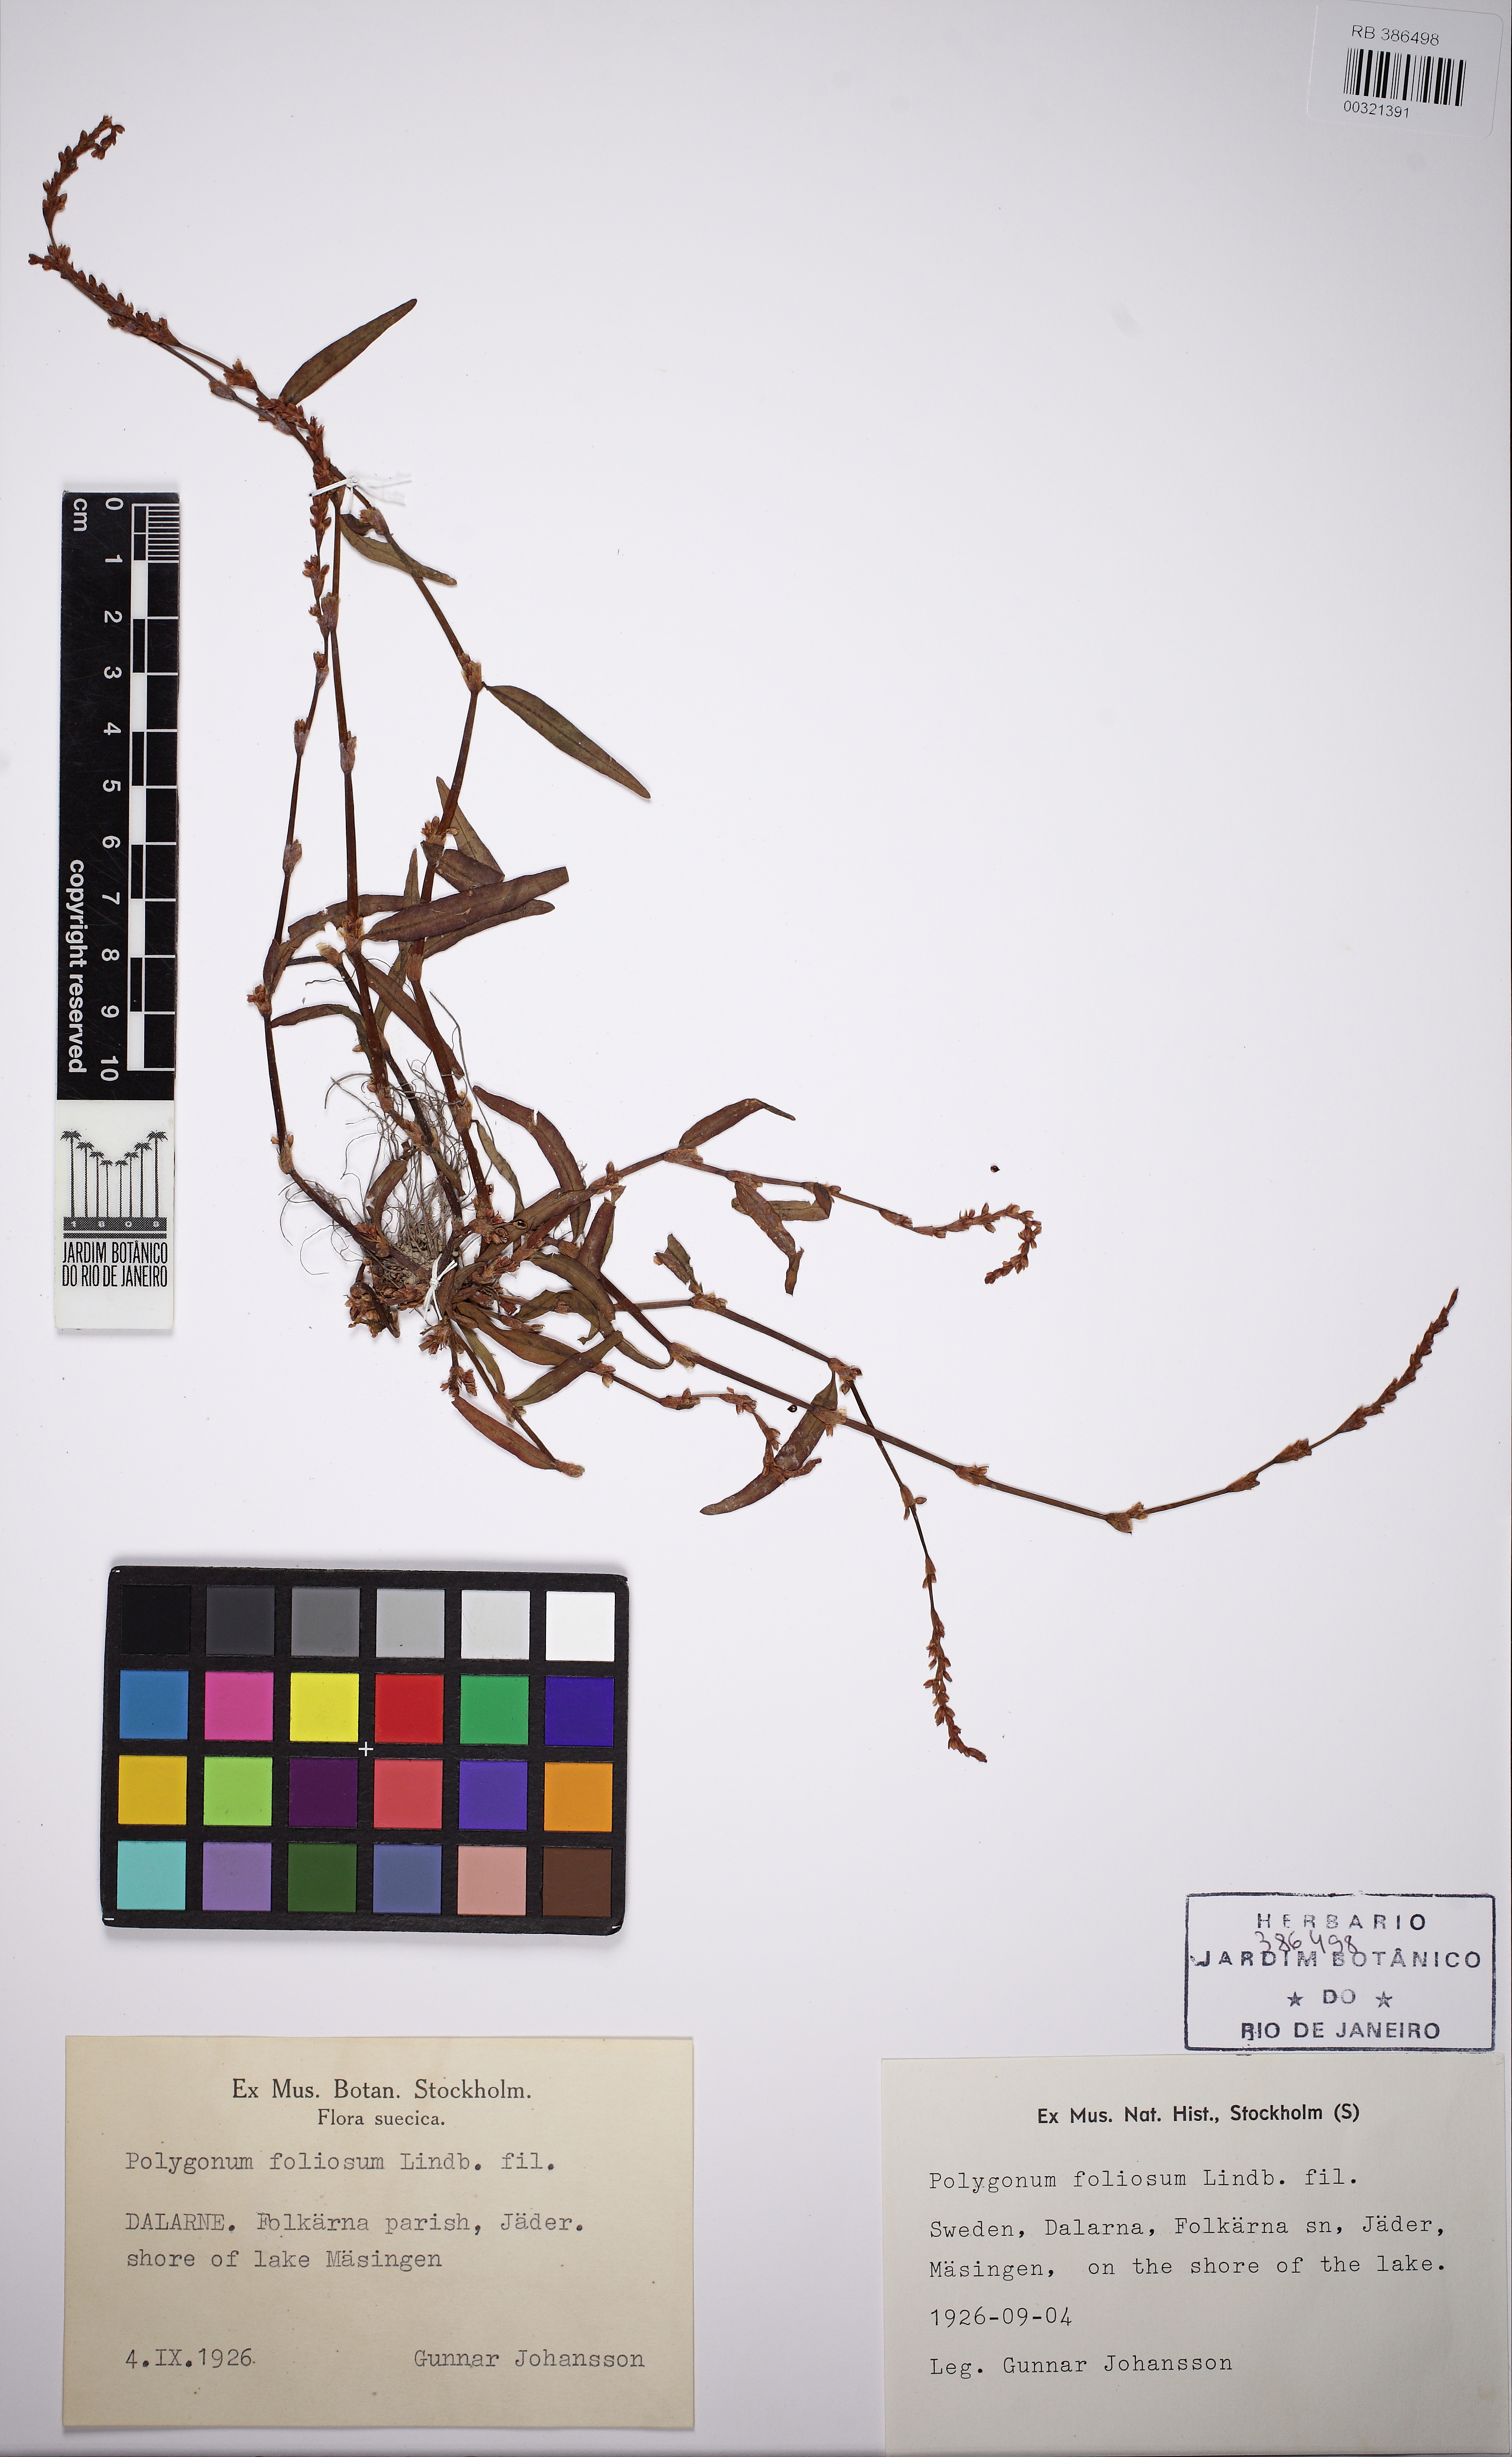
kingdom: Plantae
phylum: Tracheophyta
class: Magnoliopsida
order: Caryophyllales
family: Polygonaceae
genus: Persicaria
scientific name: Persicaria foliosa
